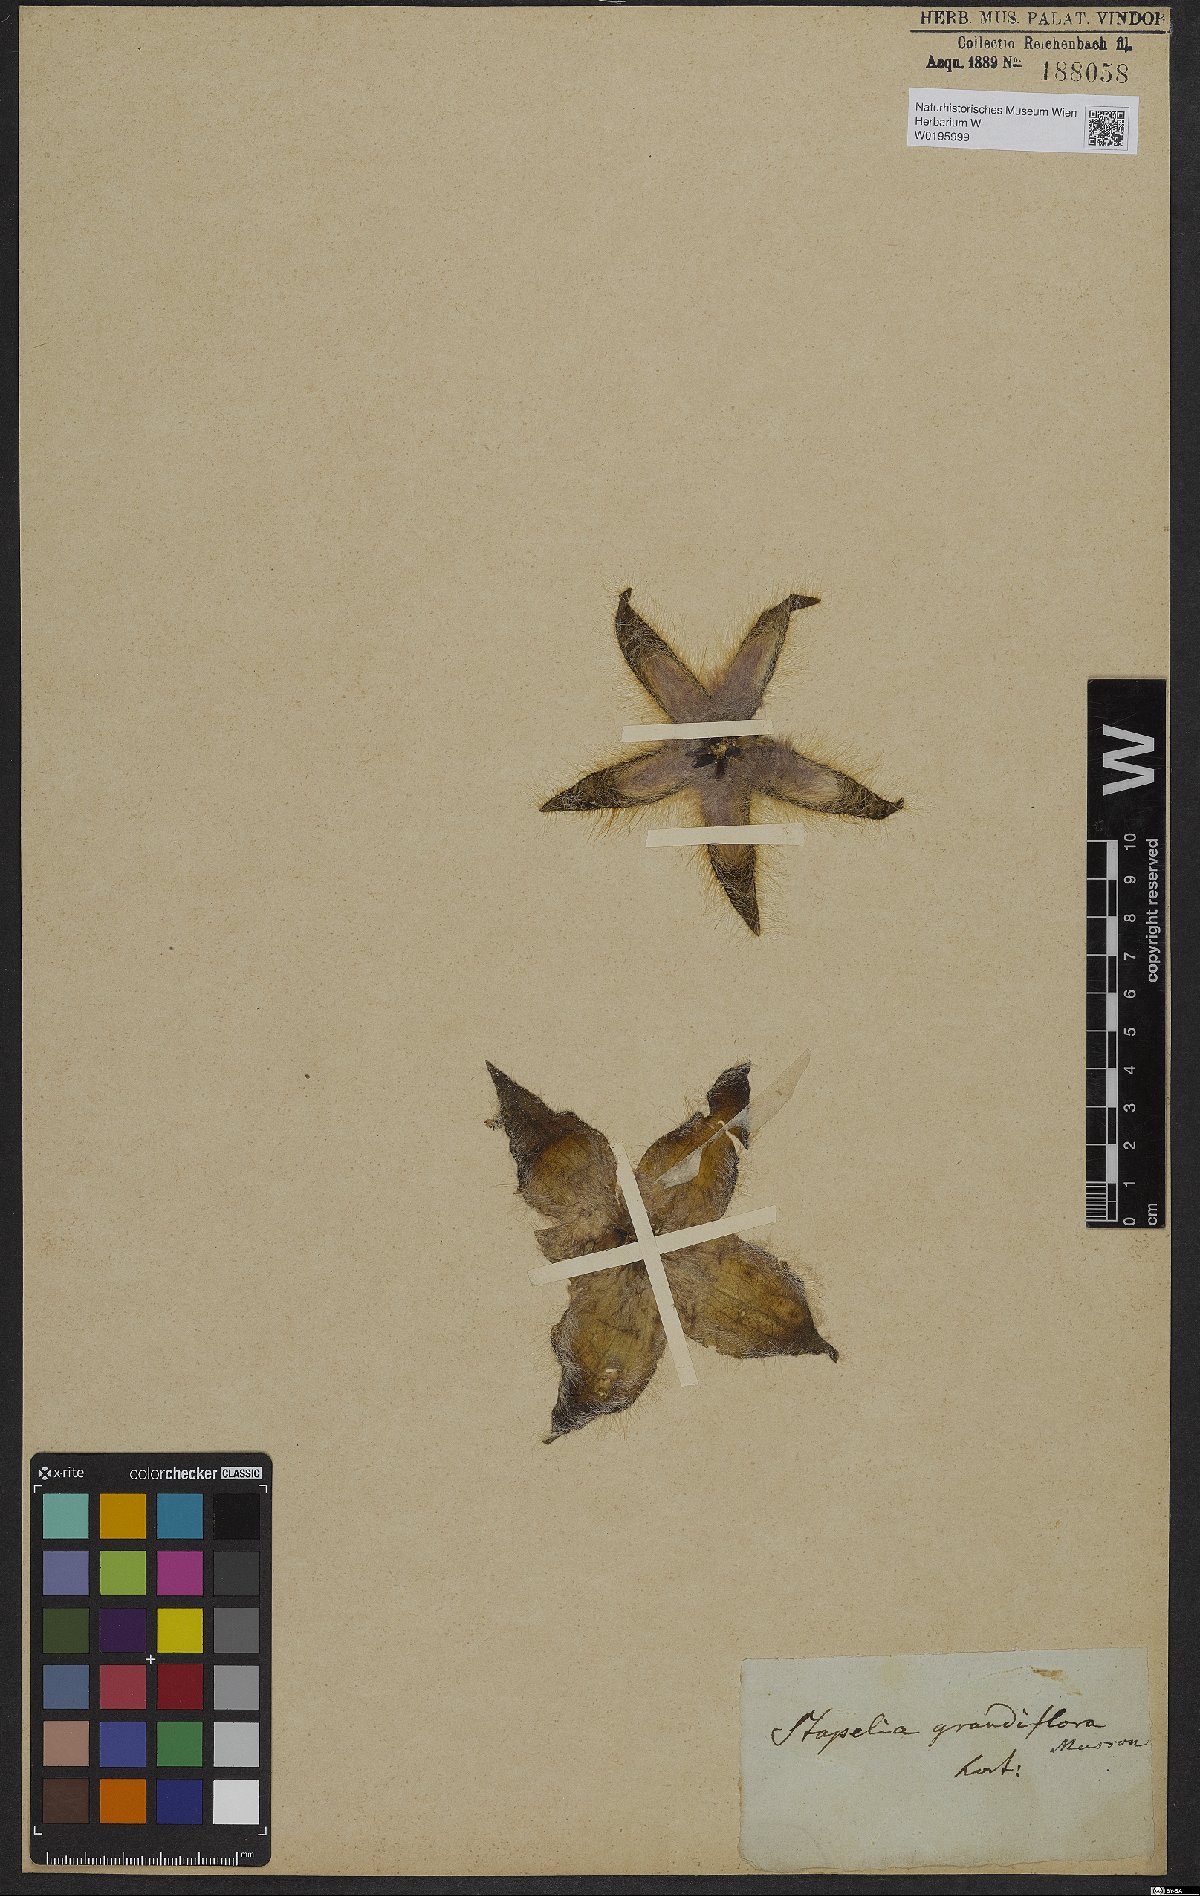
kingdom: Plantae
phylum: Tracheophyta
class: Magnoliopsida
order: Gentianales
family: Apocynaceae
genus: Ceropegia
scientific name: Ceropegia grandiflora
